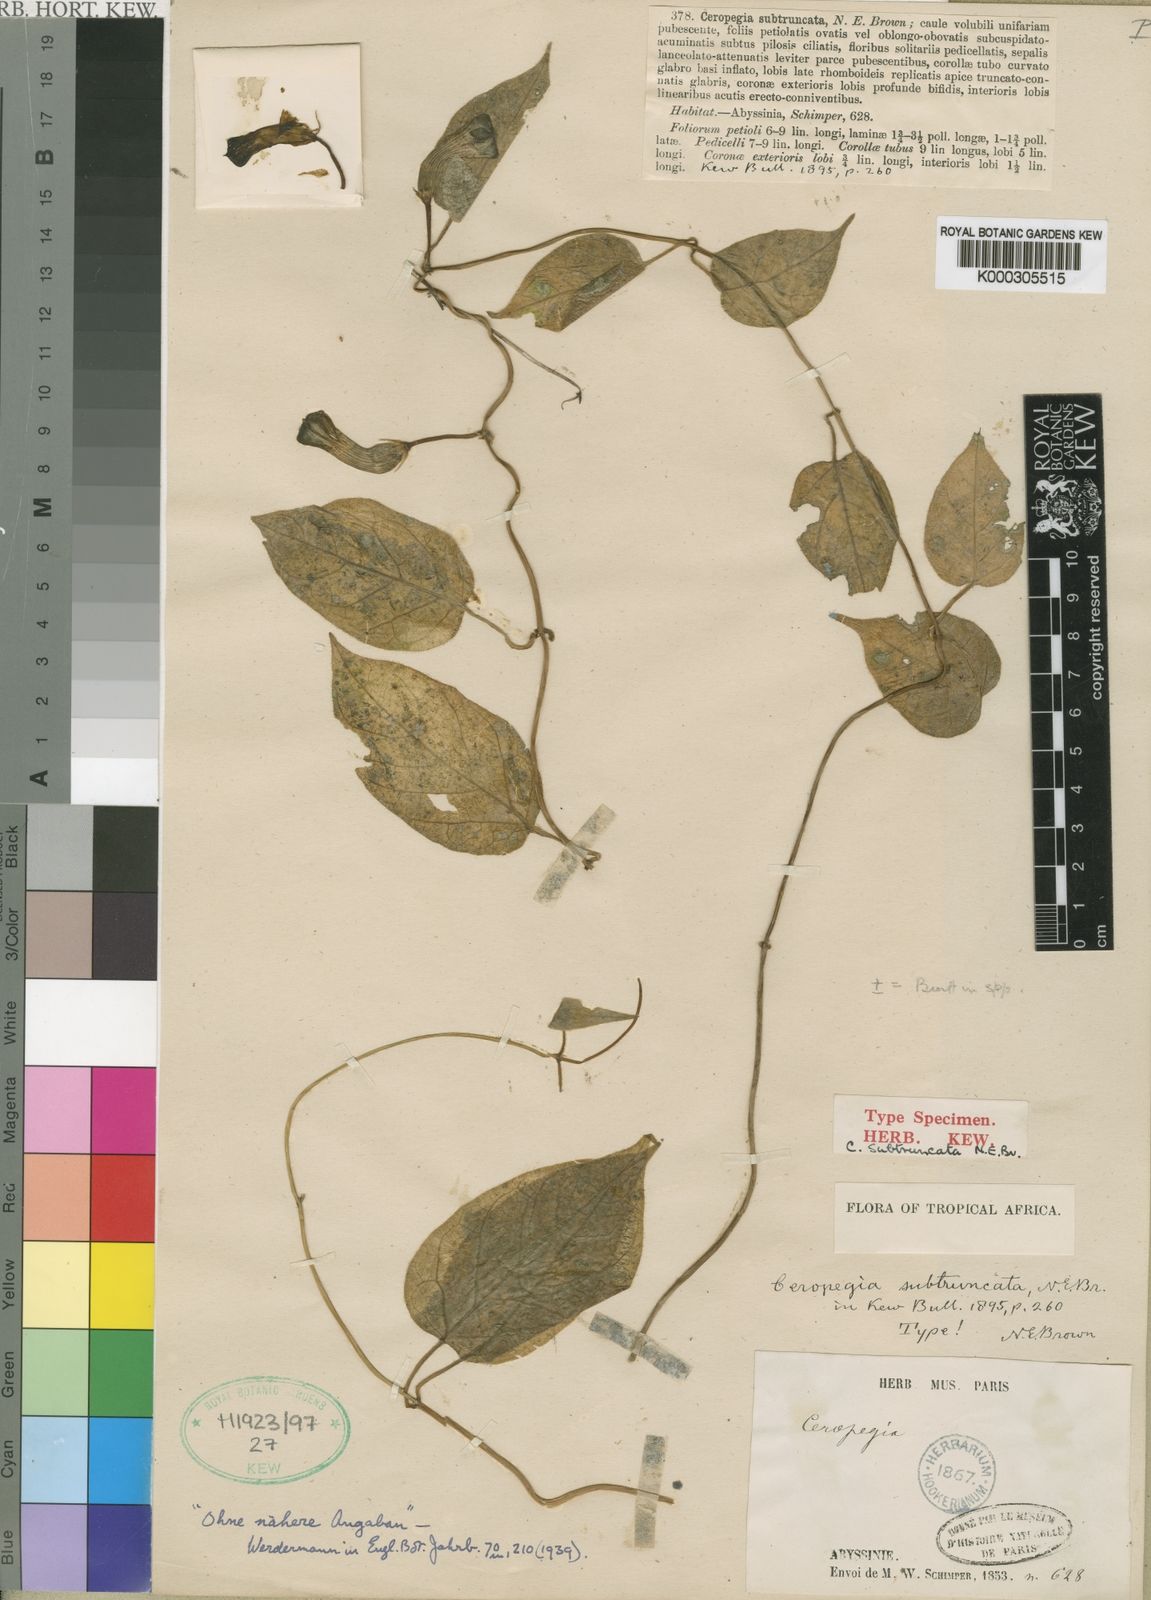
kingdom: Plantae
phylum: Tracheophyta
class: Magnoliopsida
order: Gentianales
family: Apocynaceae
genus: Ceropegia
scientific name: Ceropegia sobolifera
